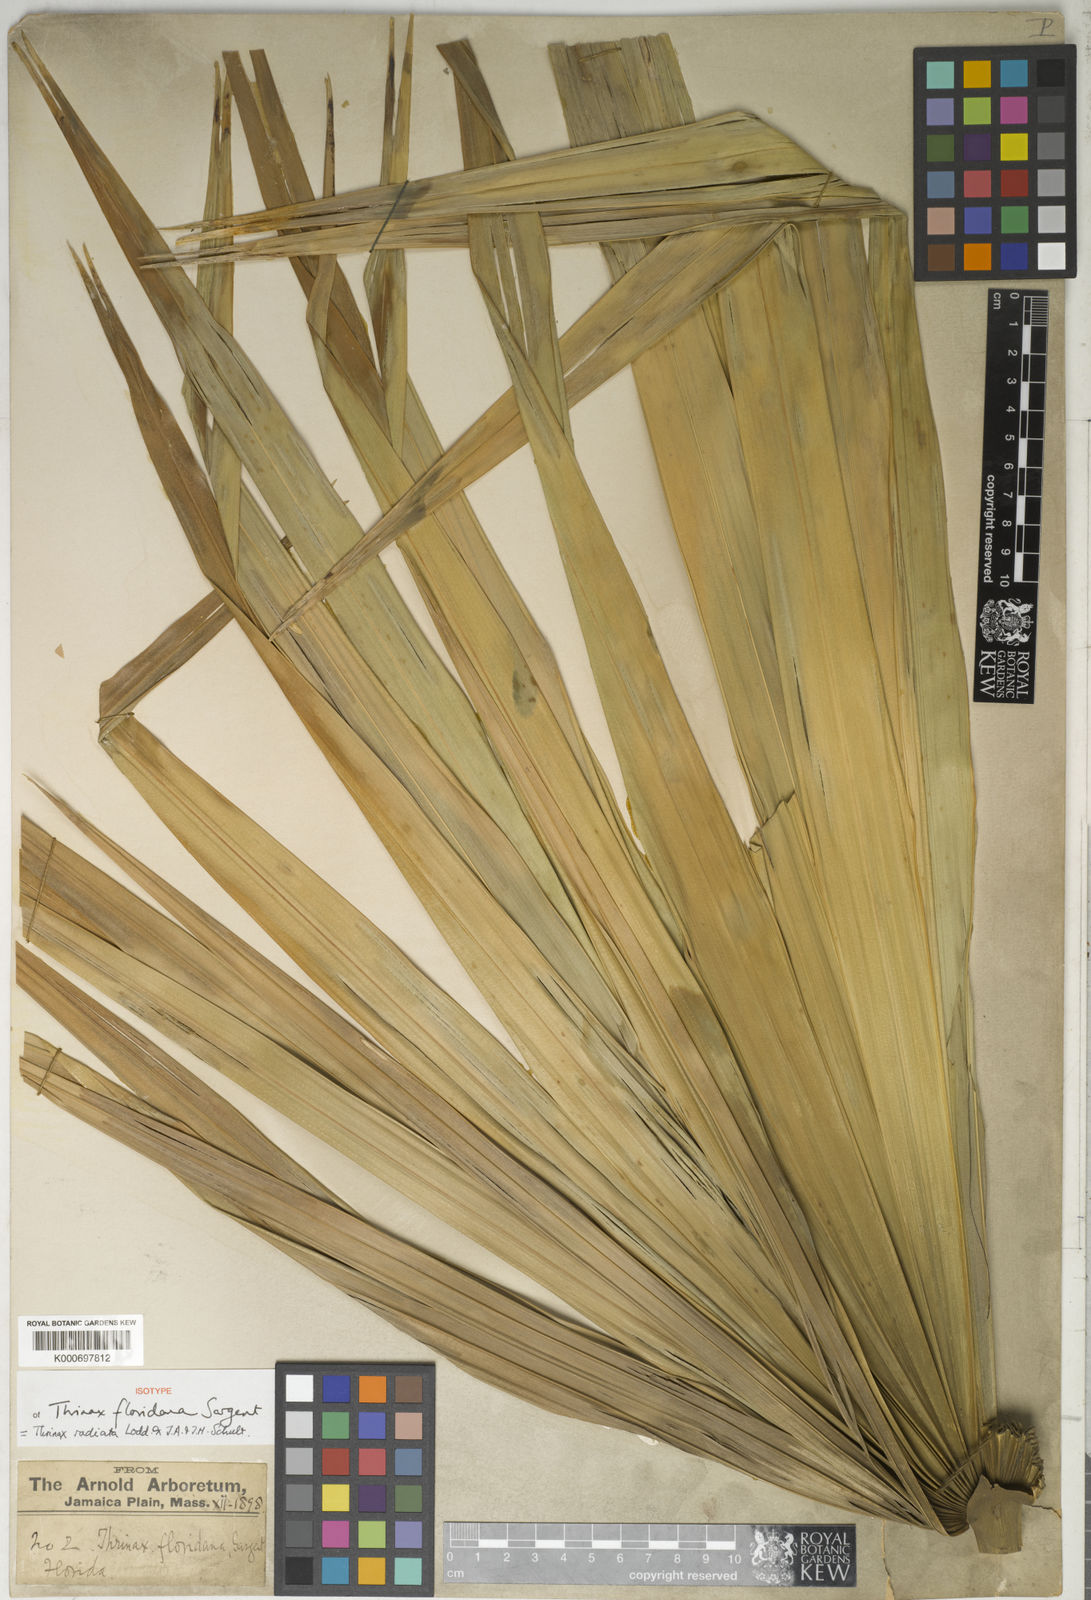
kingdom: Plantae
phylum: Tracheophyta
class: Liliopsida
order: Arecales
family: Arecaceae
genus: Thrinax
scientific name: Thrinax radiata
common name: Florida thatch
